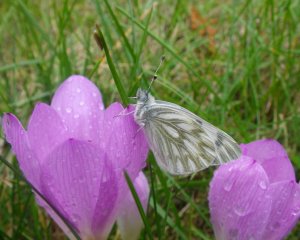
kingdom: Animalia
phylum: Arthropoda
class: Insecta
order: Lepidoptera
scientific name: Lepidoptera
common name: Butterflies
